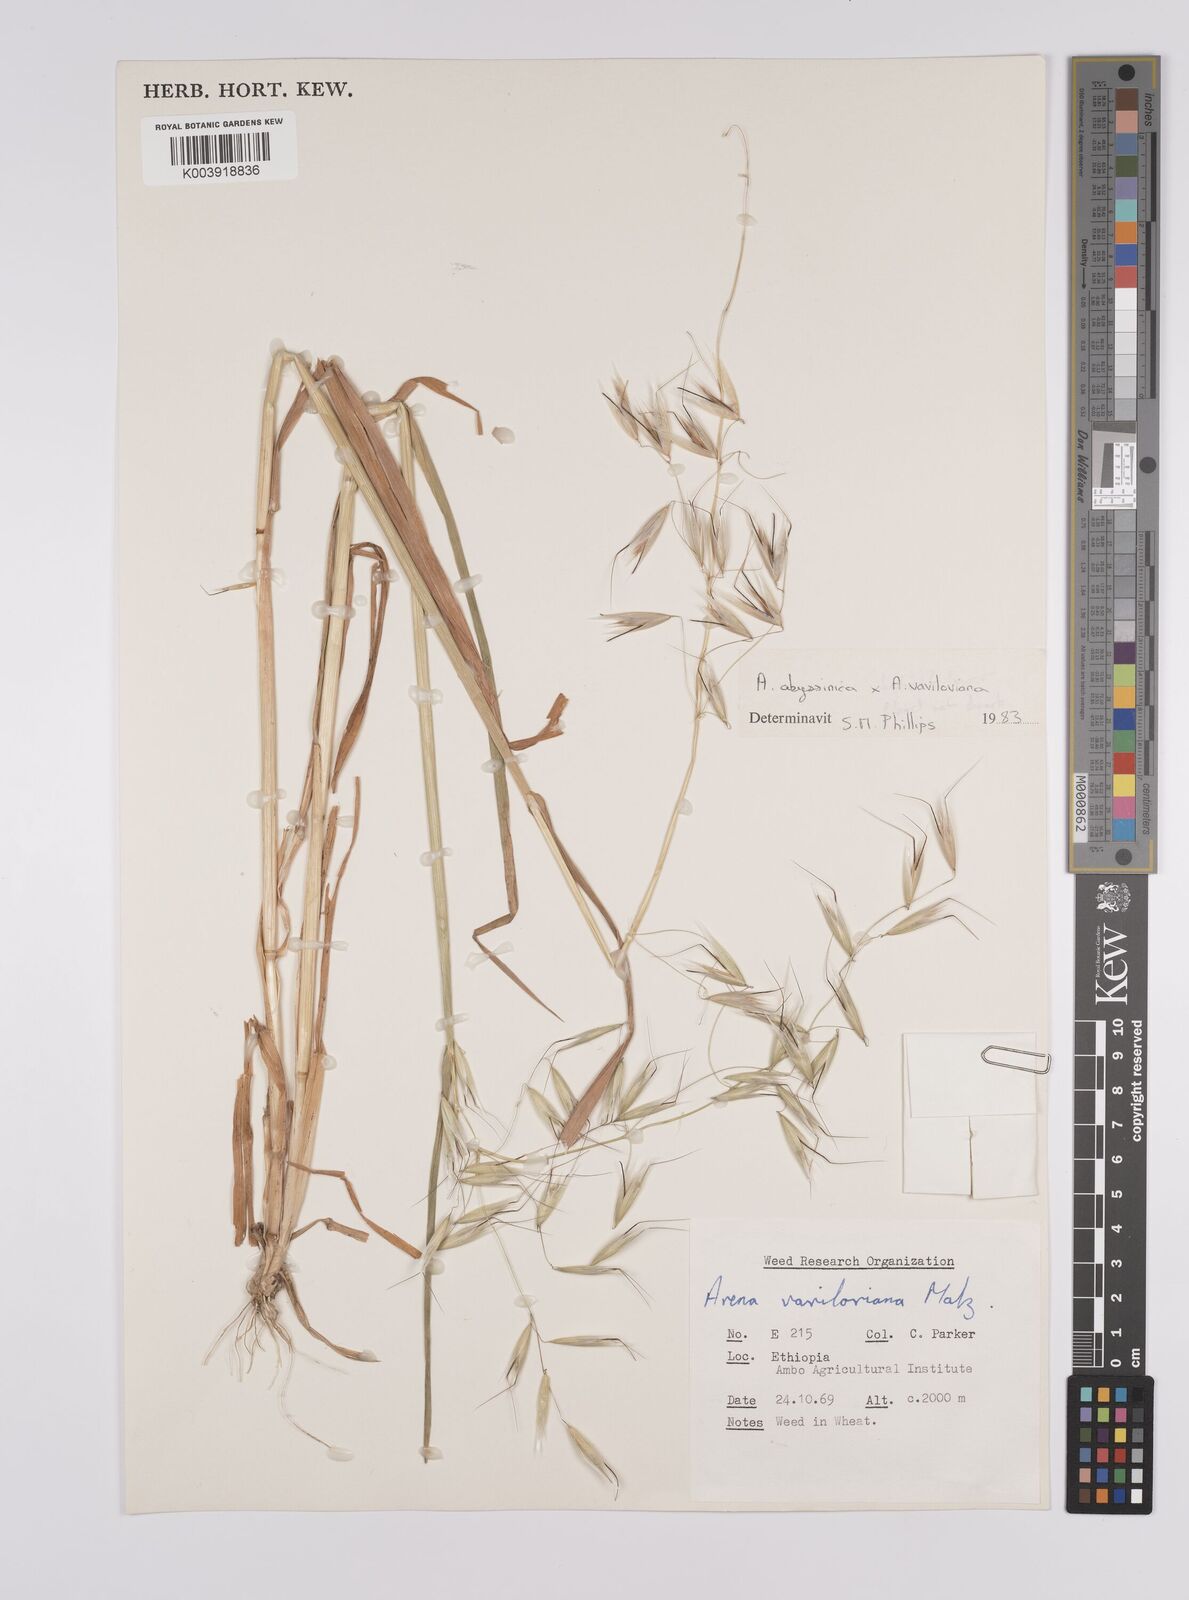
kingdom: Plantae
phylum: Tracheophyta
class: Liliopsida
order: Poales
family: Poaceae
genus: Avena
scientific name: Avena abyssinica
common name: Ethiopian oat
